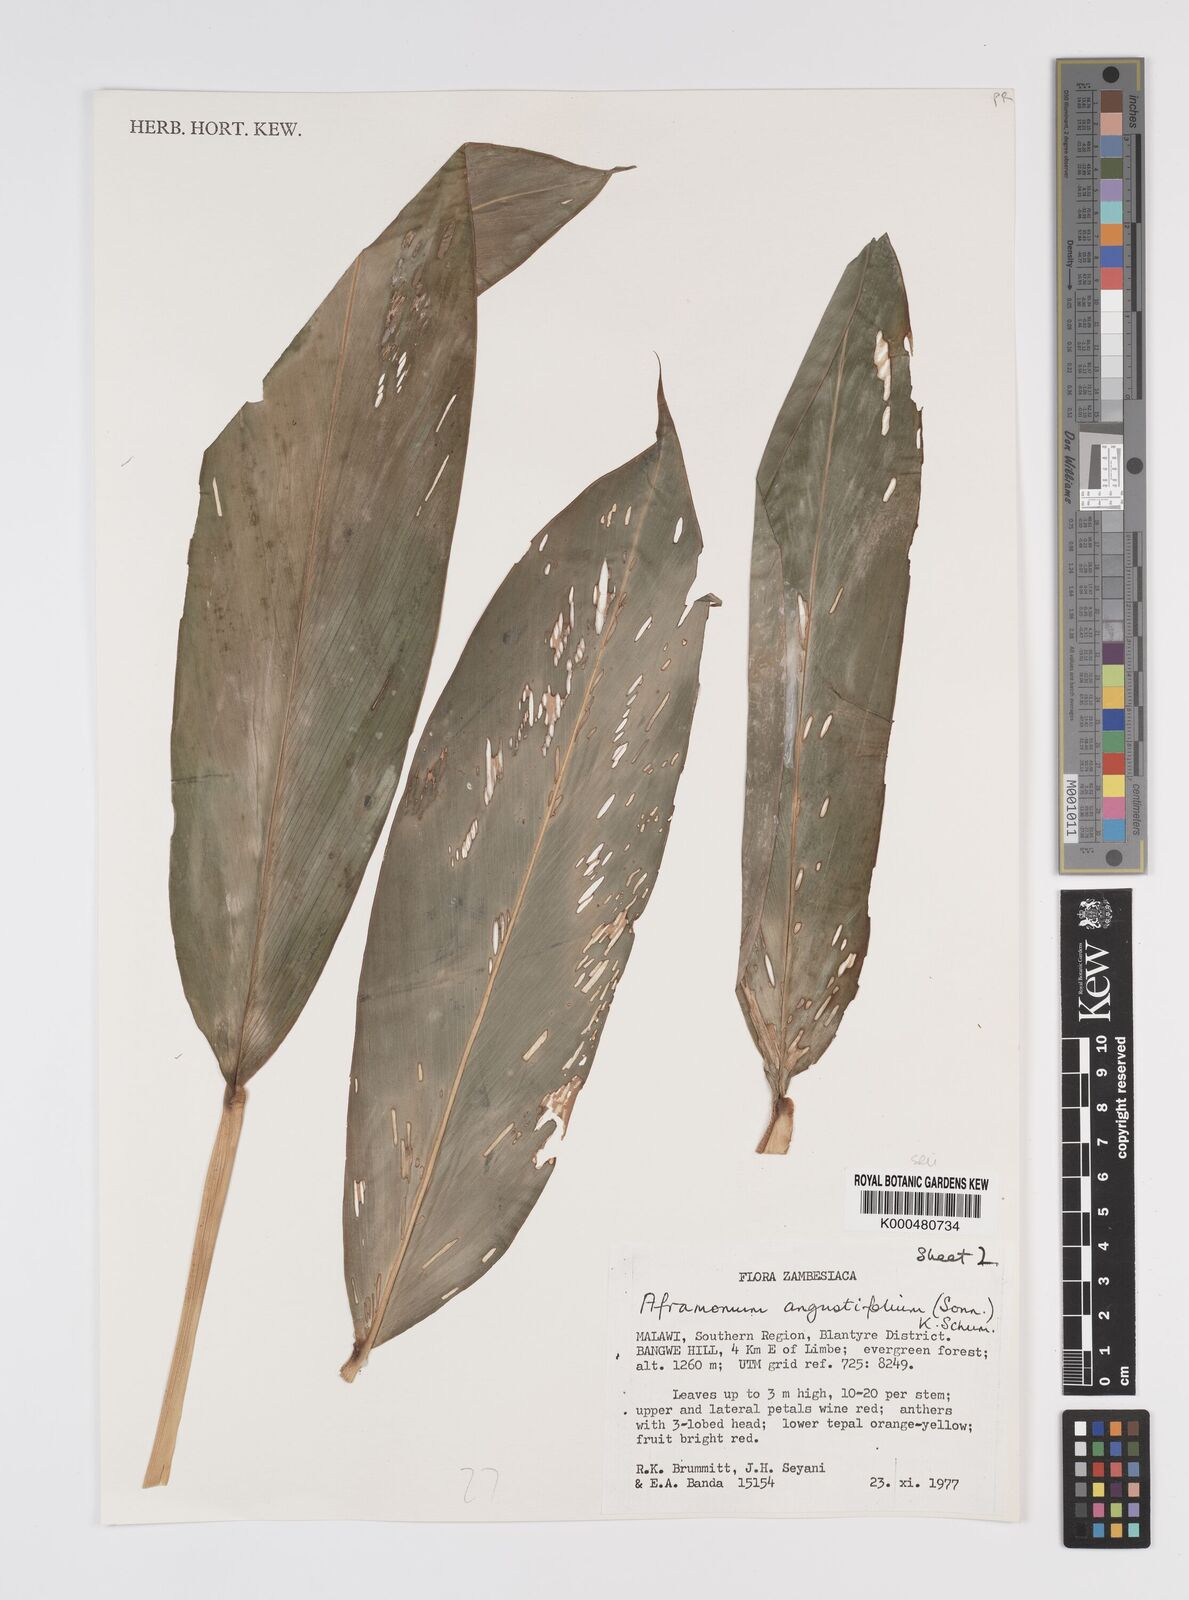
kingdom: Plantae
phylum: Tracheophyta
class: Liliopsida
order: Zingiberales
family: Zingiberaceae
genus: Aframomum
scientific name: Aframomum angustifolium
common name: Guinea grains
